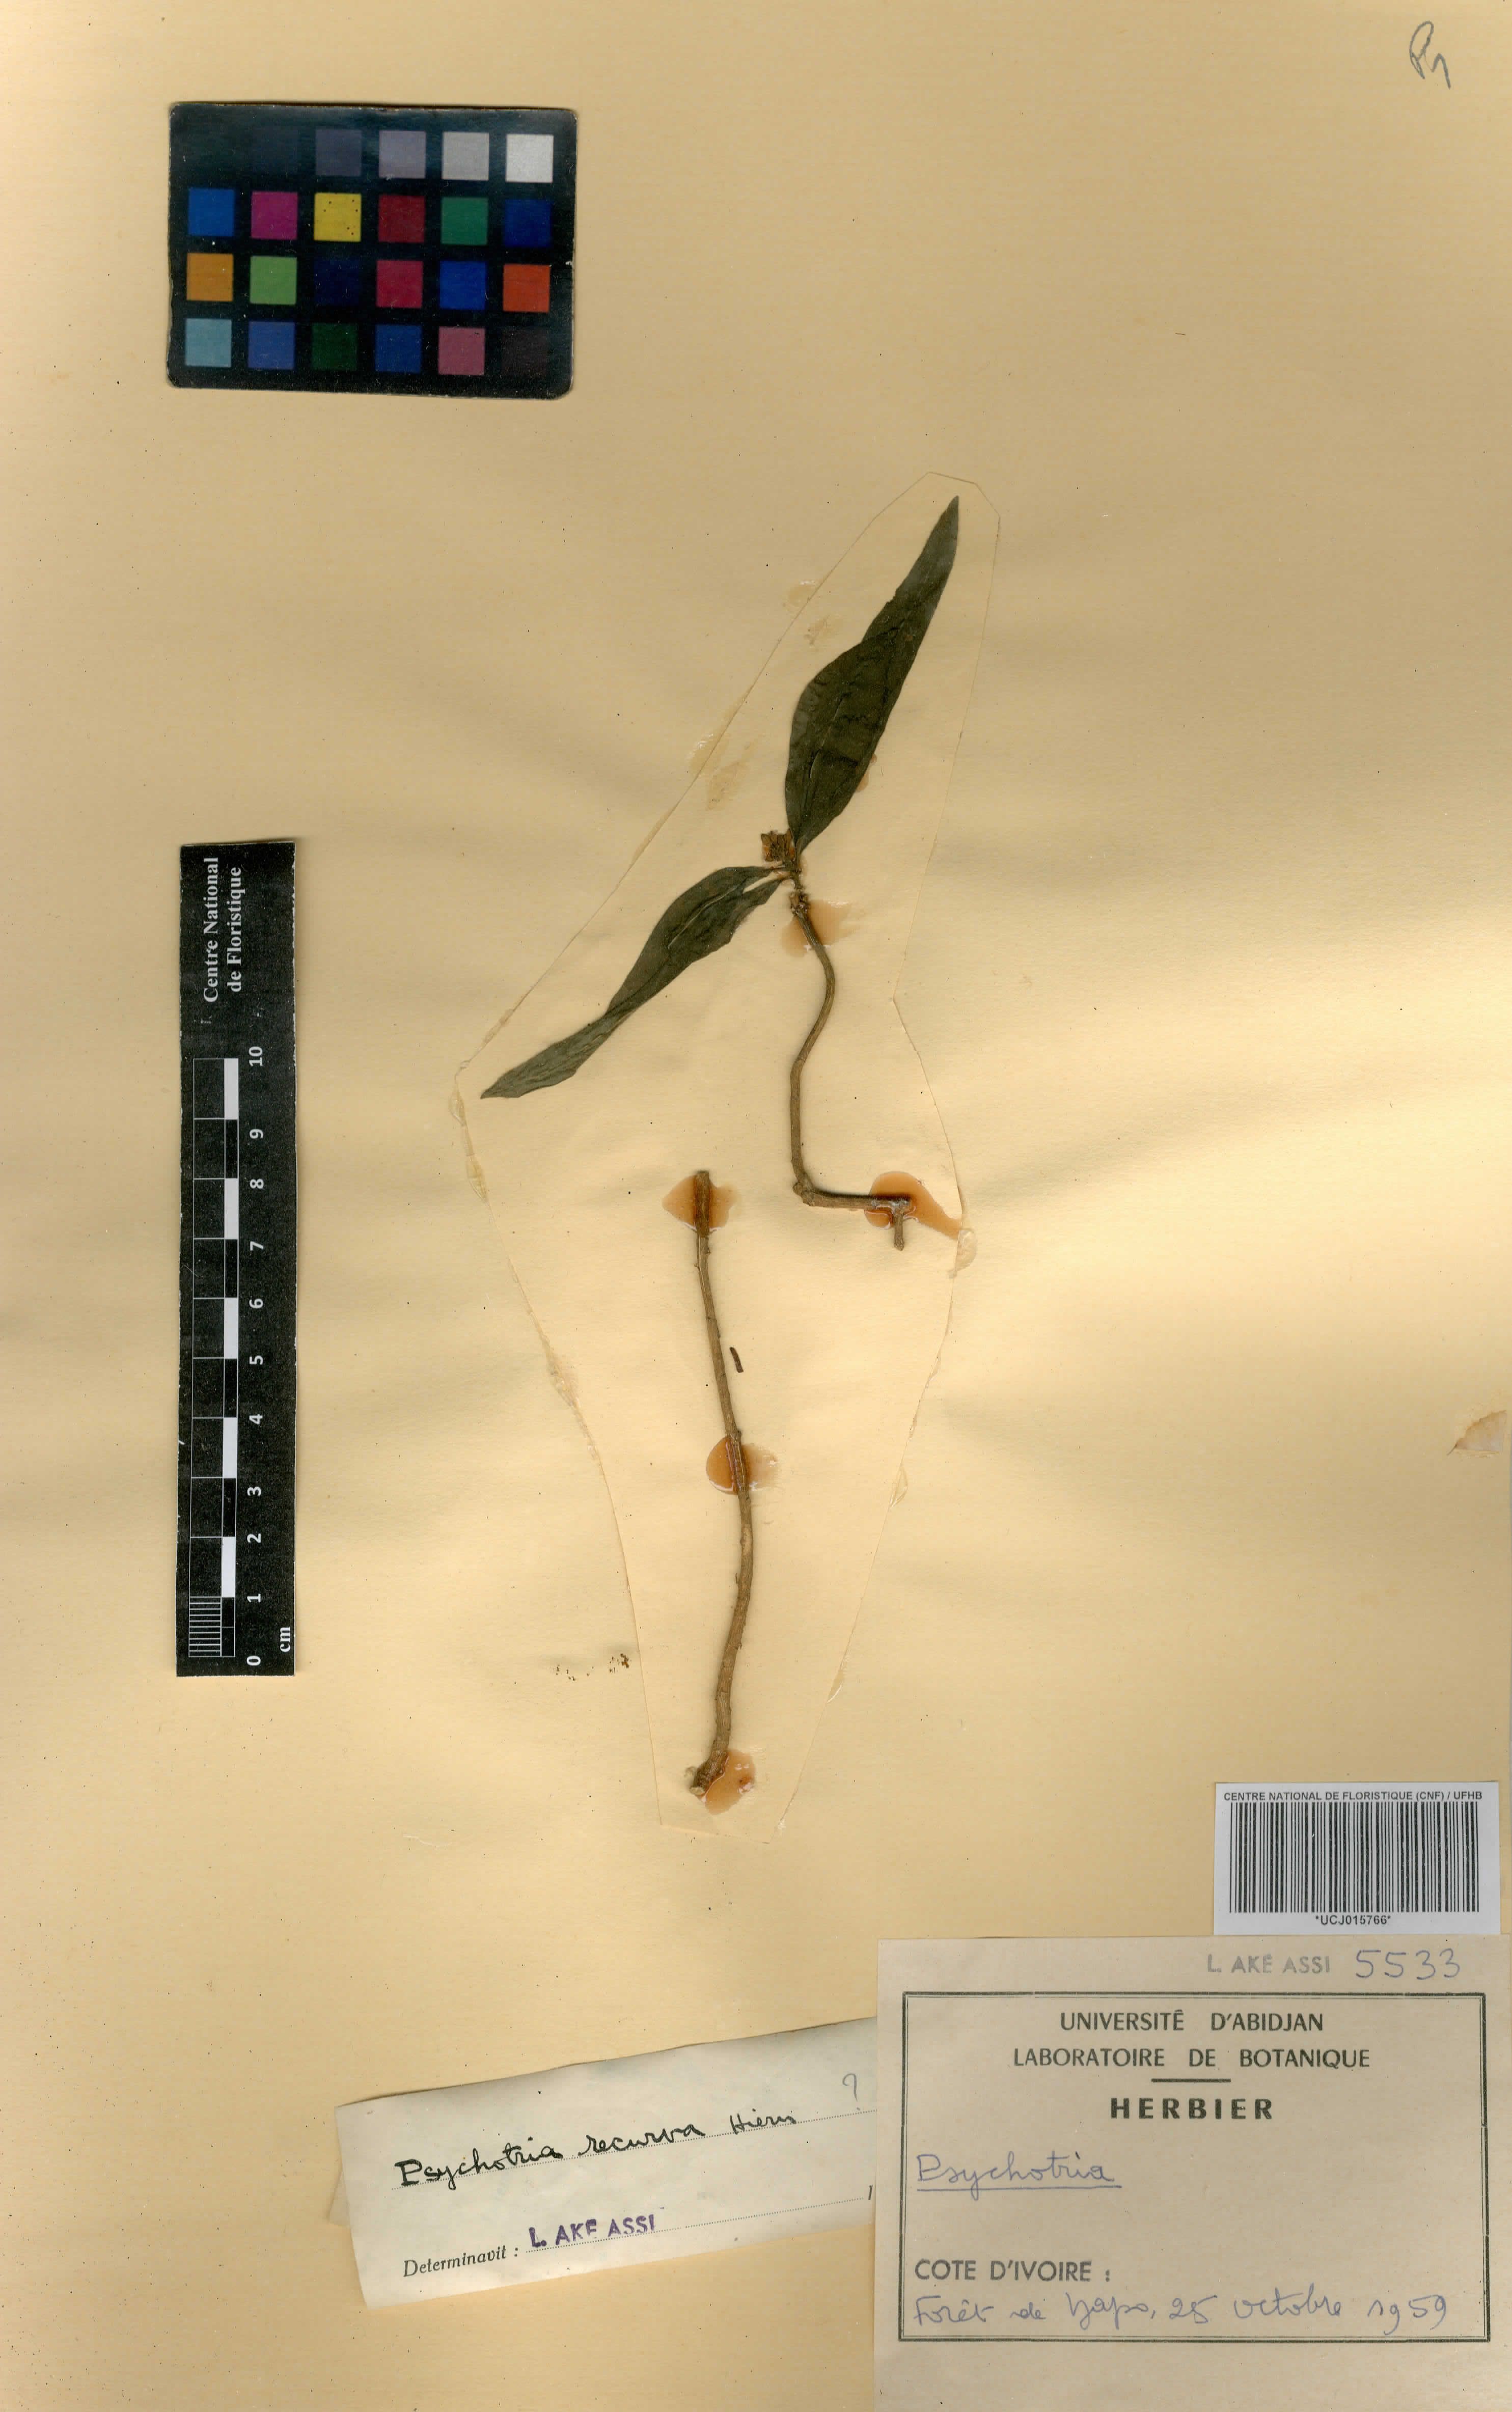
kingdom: Plantae
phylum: Tracheophyta
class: Magnoliopsida
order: Gentianales
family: Rubiaceae
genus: Psychotria
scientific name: Psychotria
